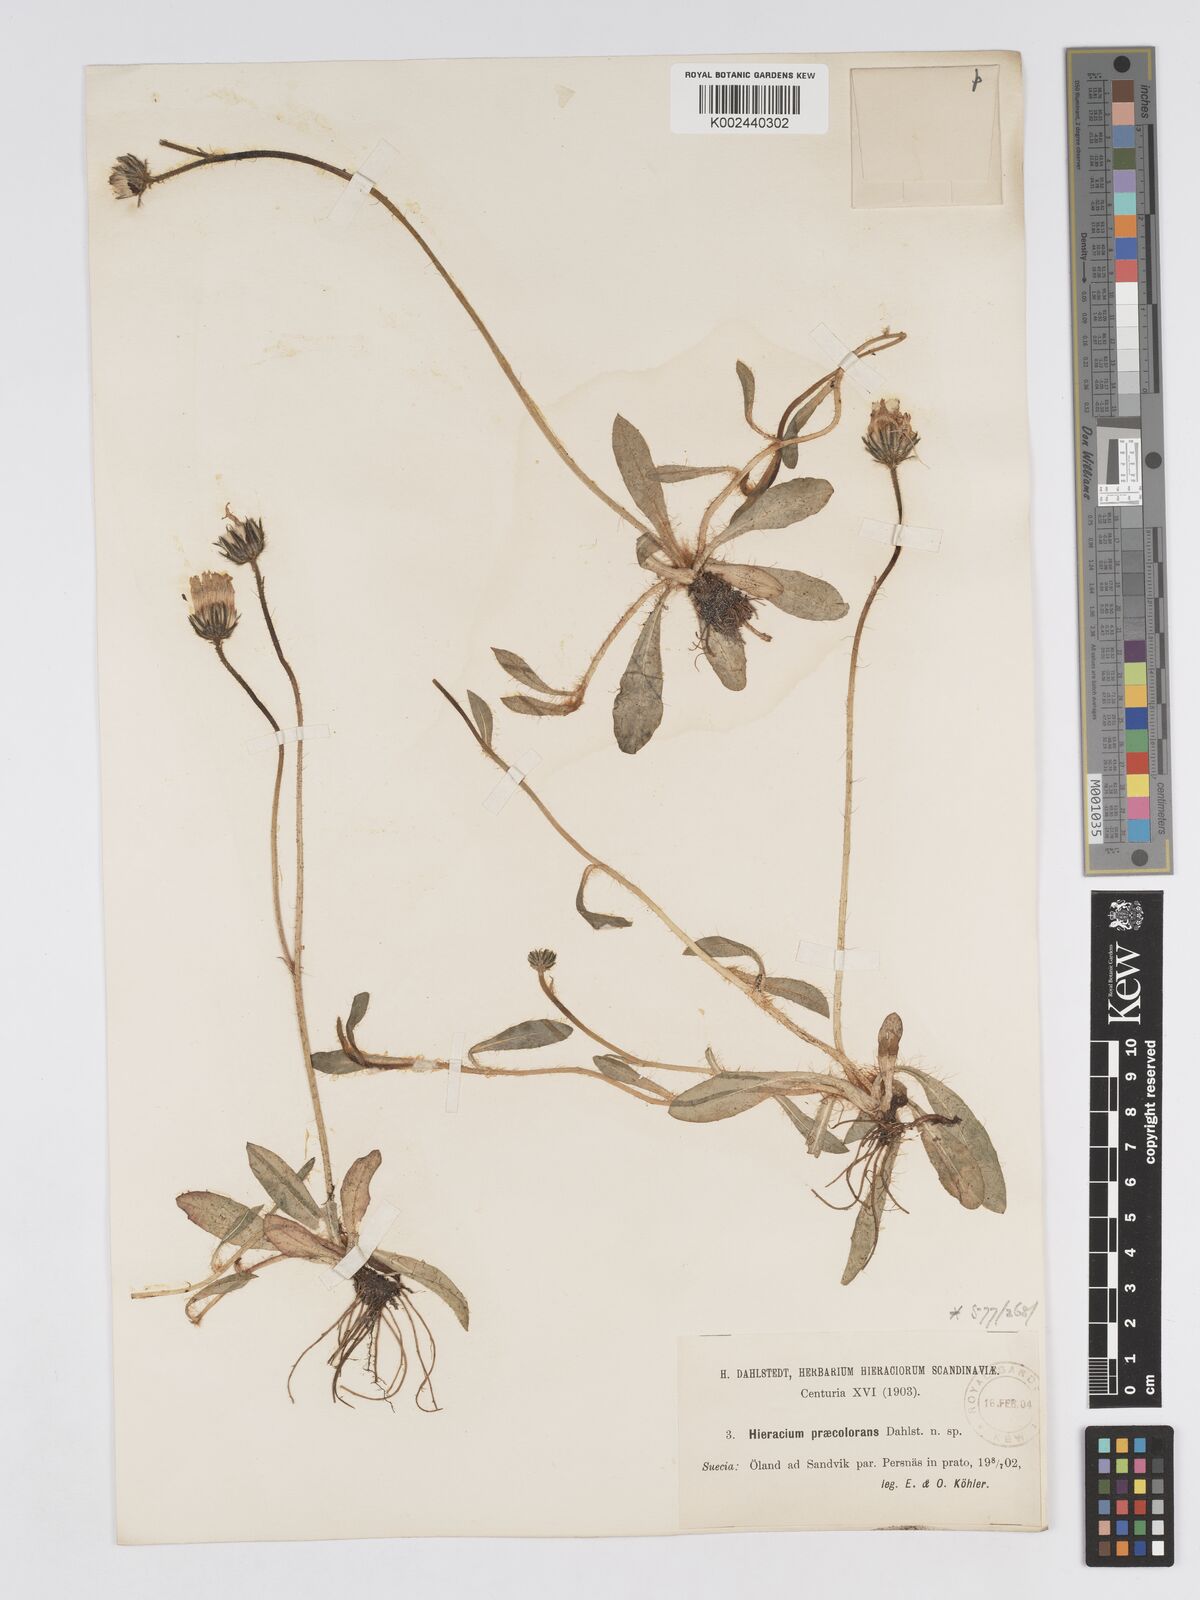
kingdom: Plantae
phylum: Tracheophyta
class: Magnoliopsida
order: Asterales
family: Asteraceae
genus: Pilosella
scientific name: Pilosella officinarum
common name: Mouse-ear hawkweed
